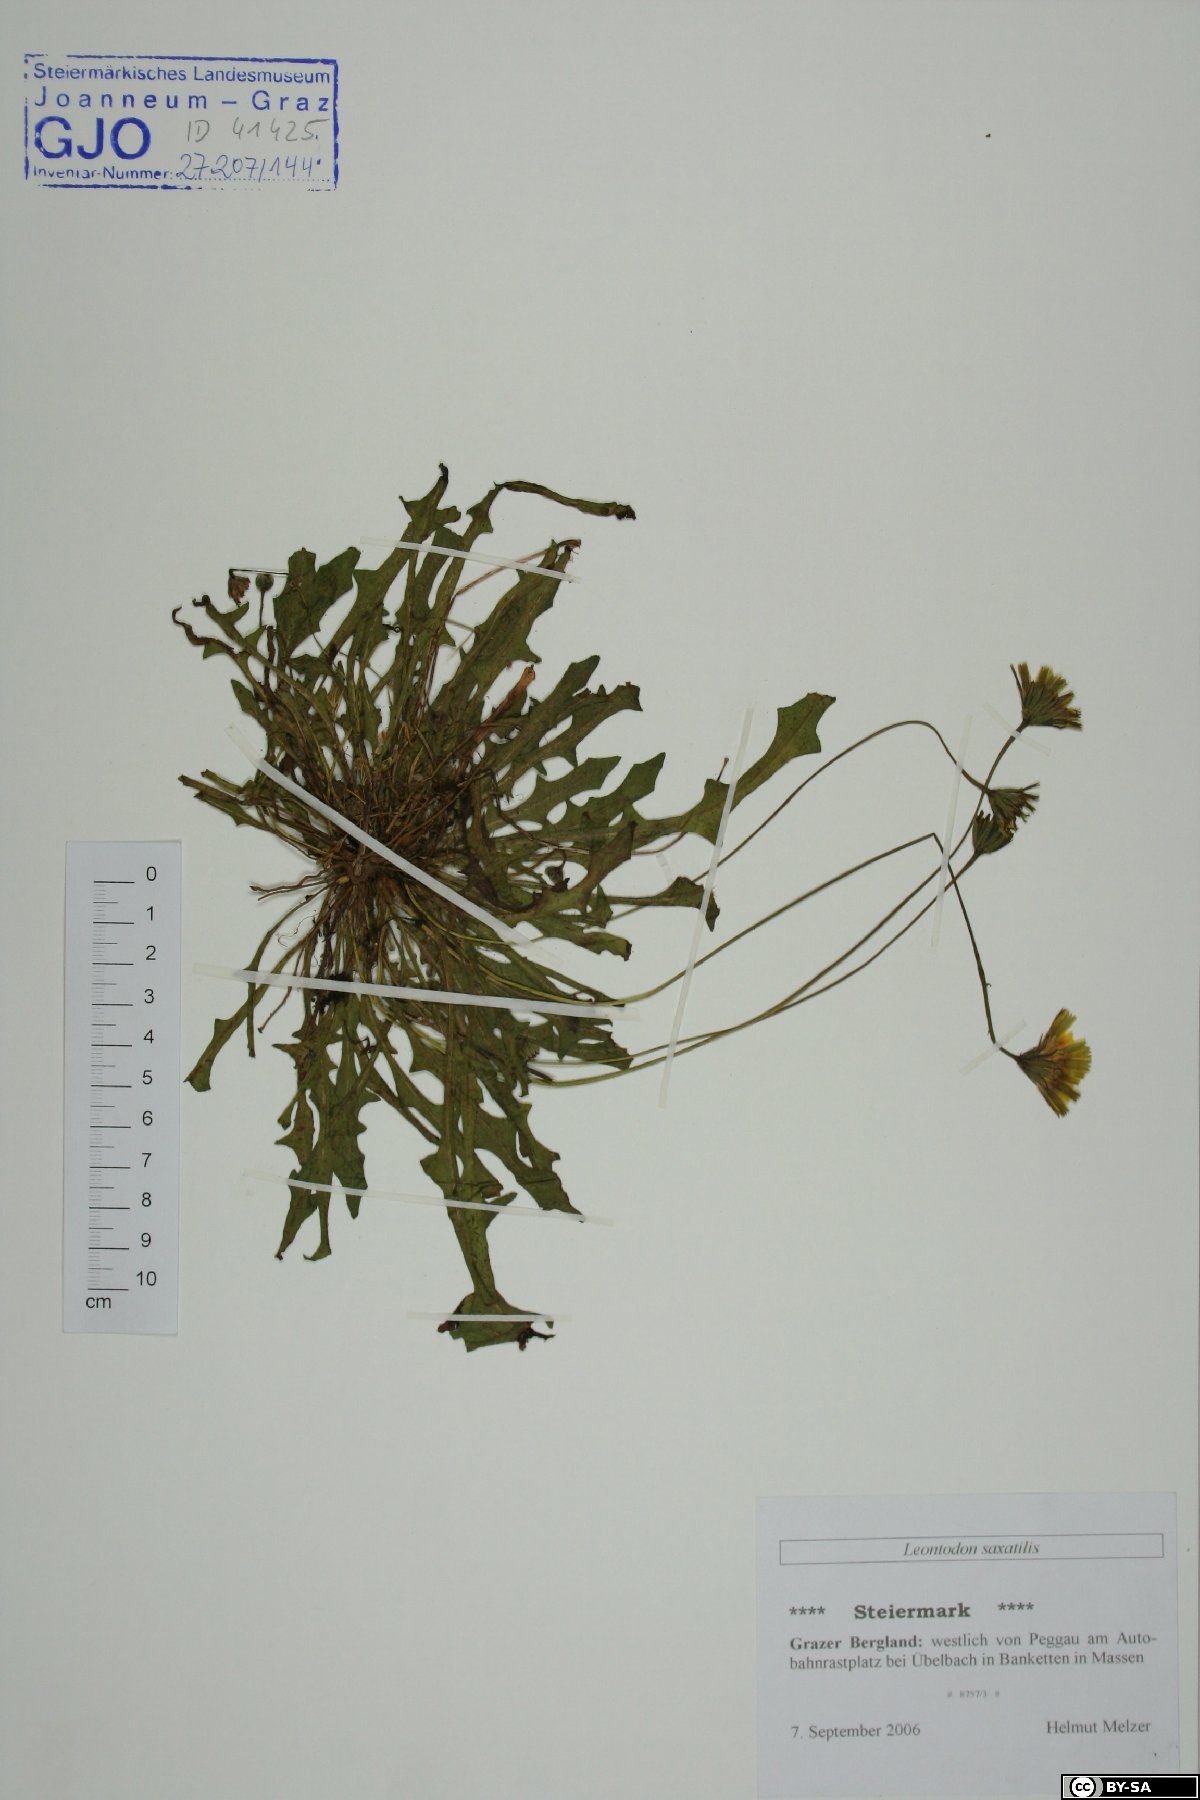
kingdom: Plantae
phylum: Tracheophyta
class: Magnoliopsida
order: Asterales
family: Asteraceae
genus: Thrincia
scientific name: Thrincia saxatilis
